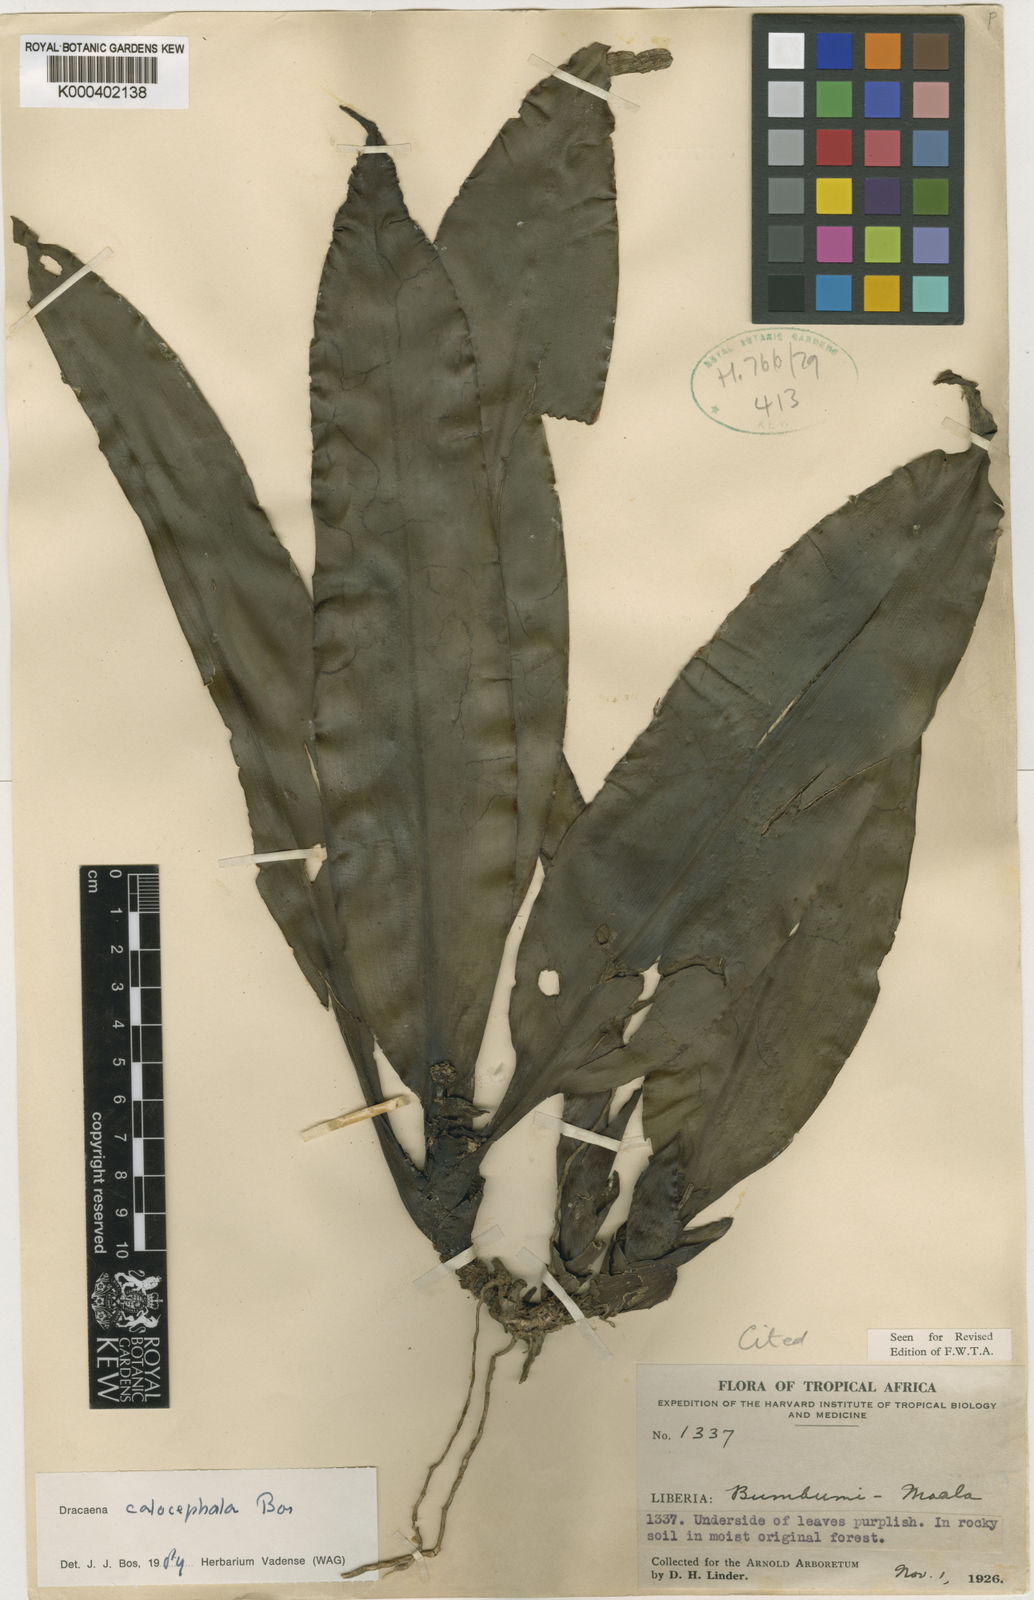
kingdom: Plantae
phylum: Tracheophyta
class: Liliopsida
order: Asparagales
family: Asparagaceae
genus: Dracaena
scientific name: Dracaena calocephala
